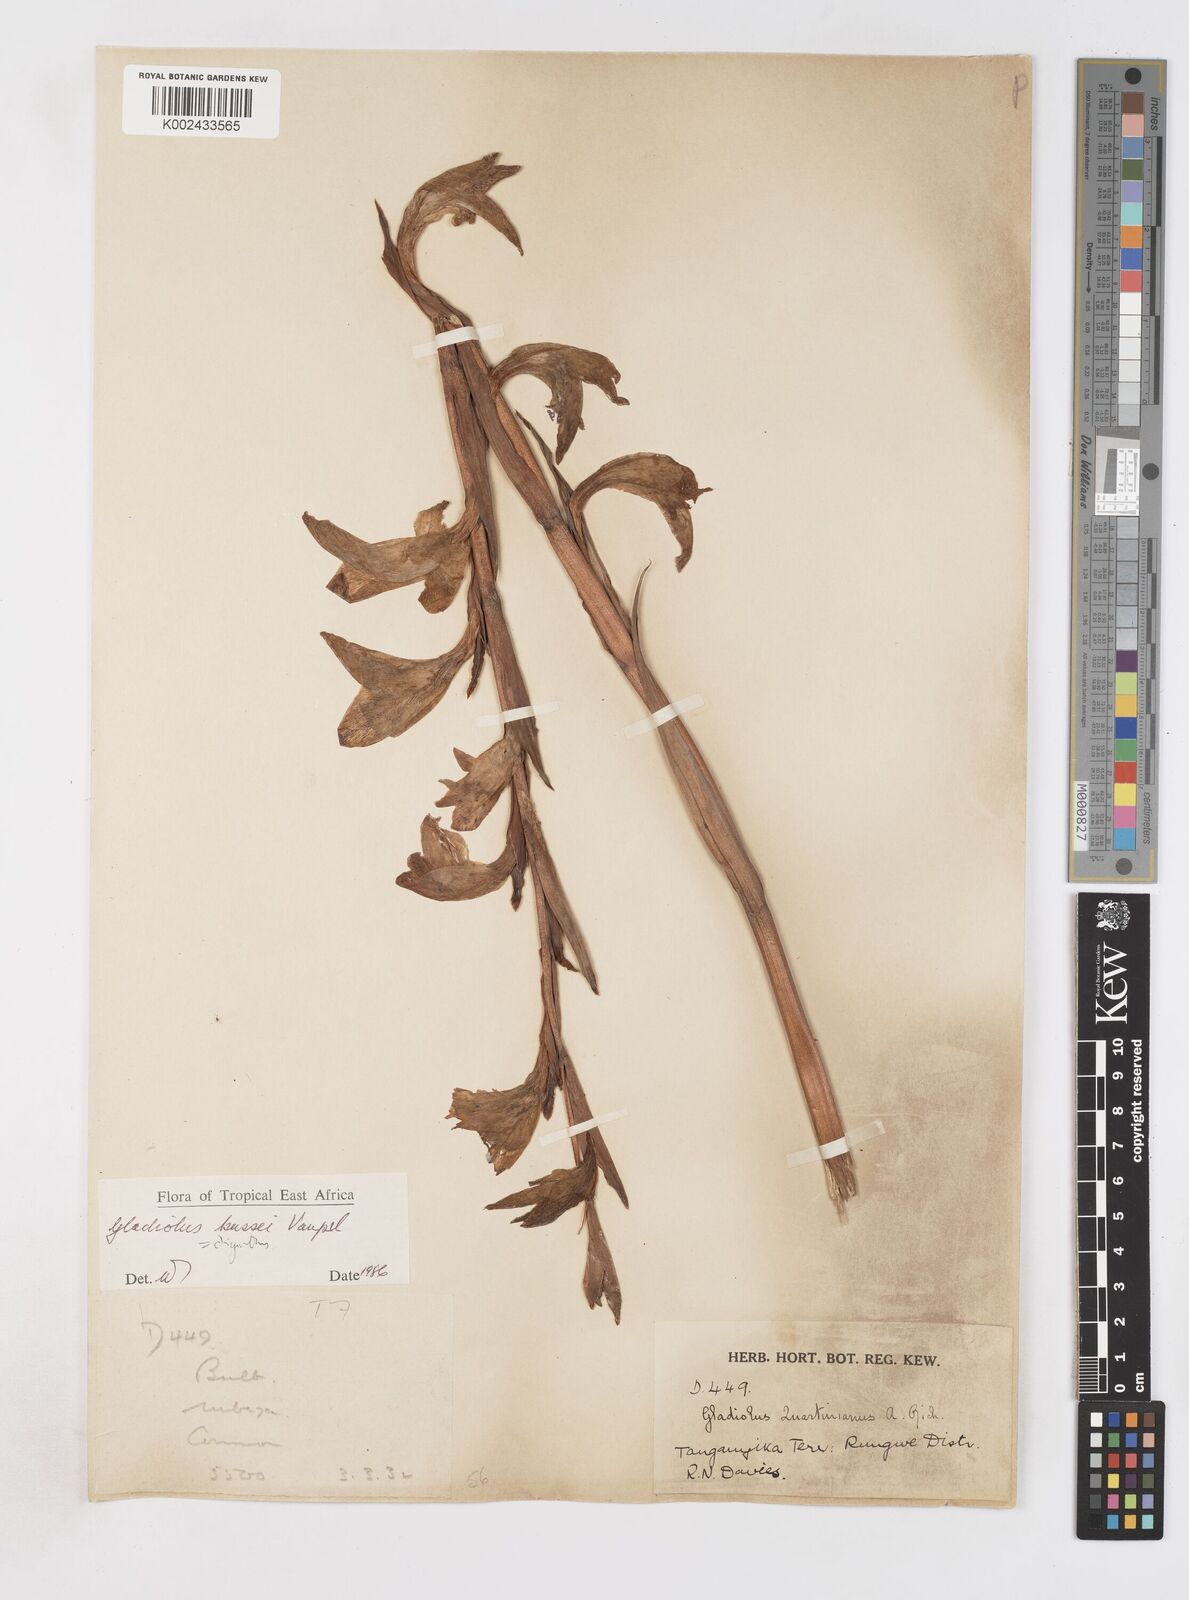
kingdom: Plantae
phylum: Tracheophyta
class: Liliopsida
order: Asparagales
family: Iridaceae
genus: Gladiolus
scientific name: Gladiolus oliganthus
